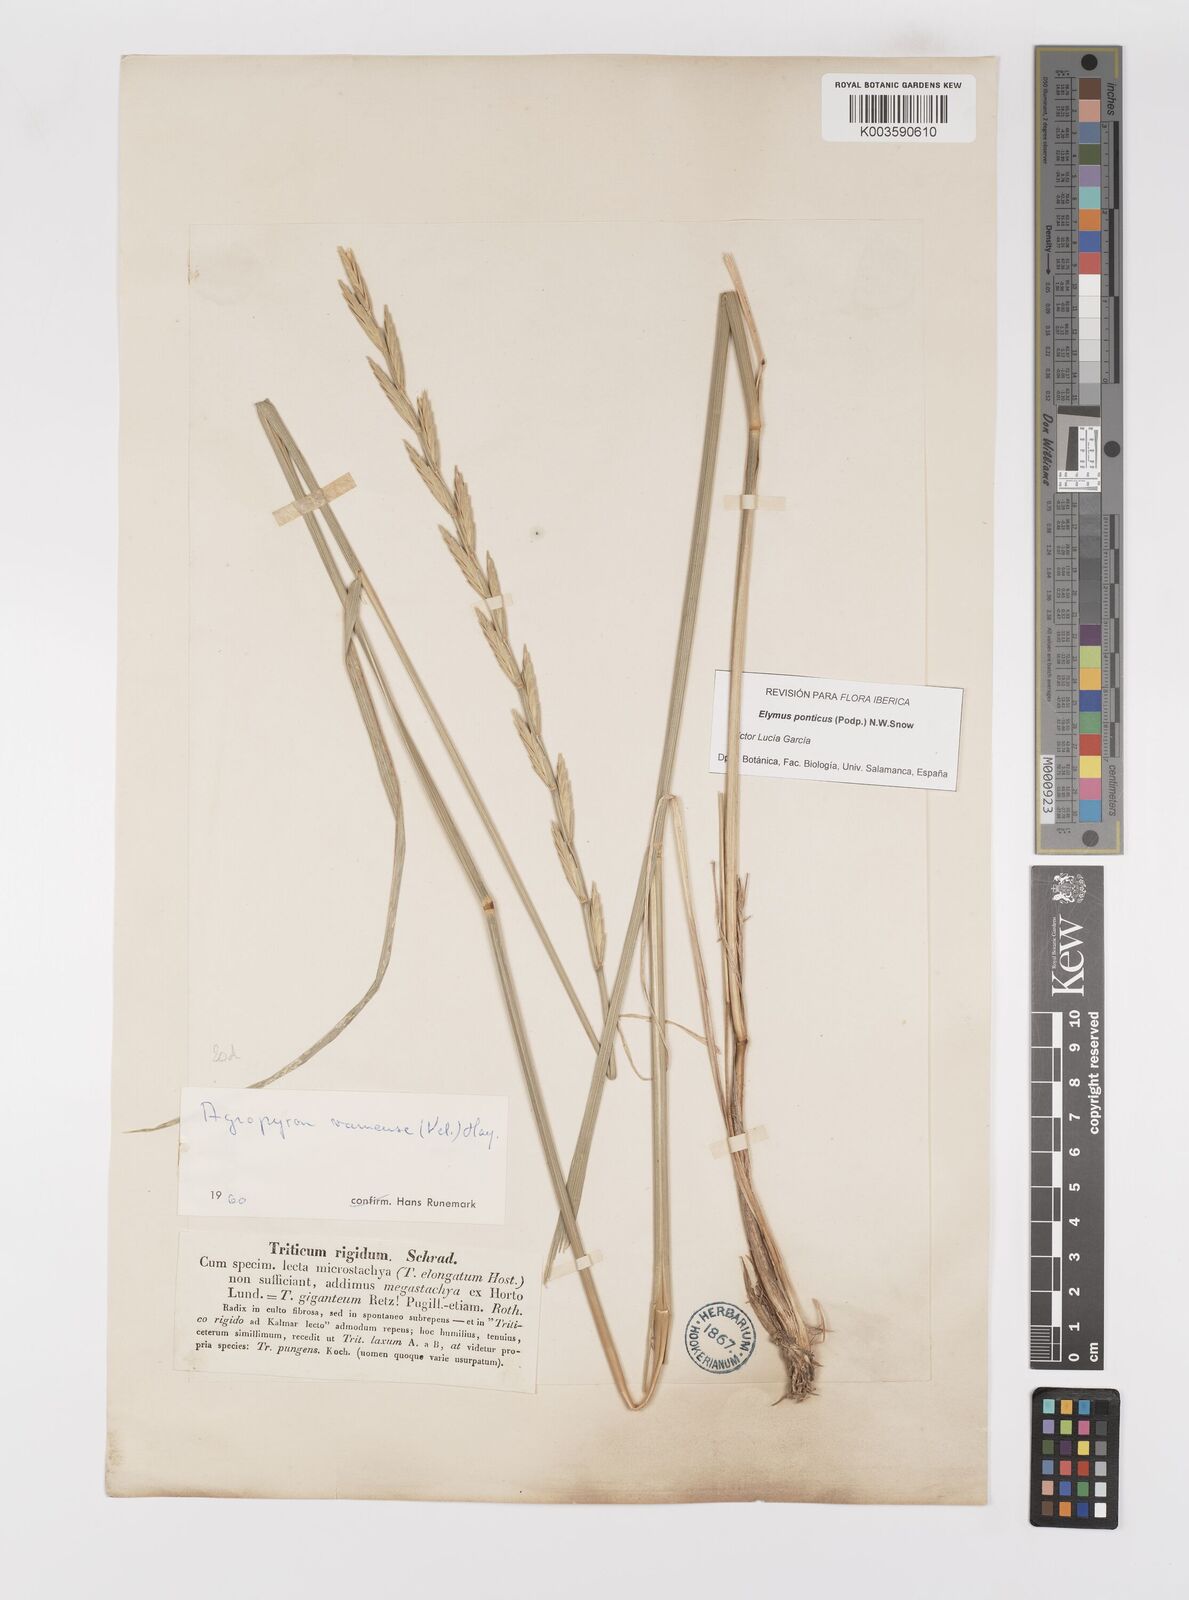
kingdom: Plantae
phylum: Tracheophyta
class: Liliopsida
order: Poales
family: Poaceae
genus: Thinopyrum
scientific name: Thinopyrum elongatum
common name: Tall wheatgrass
